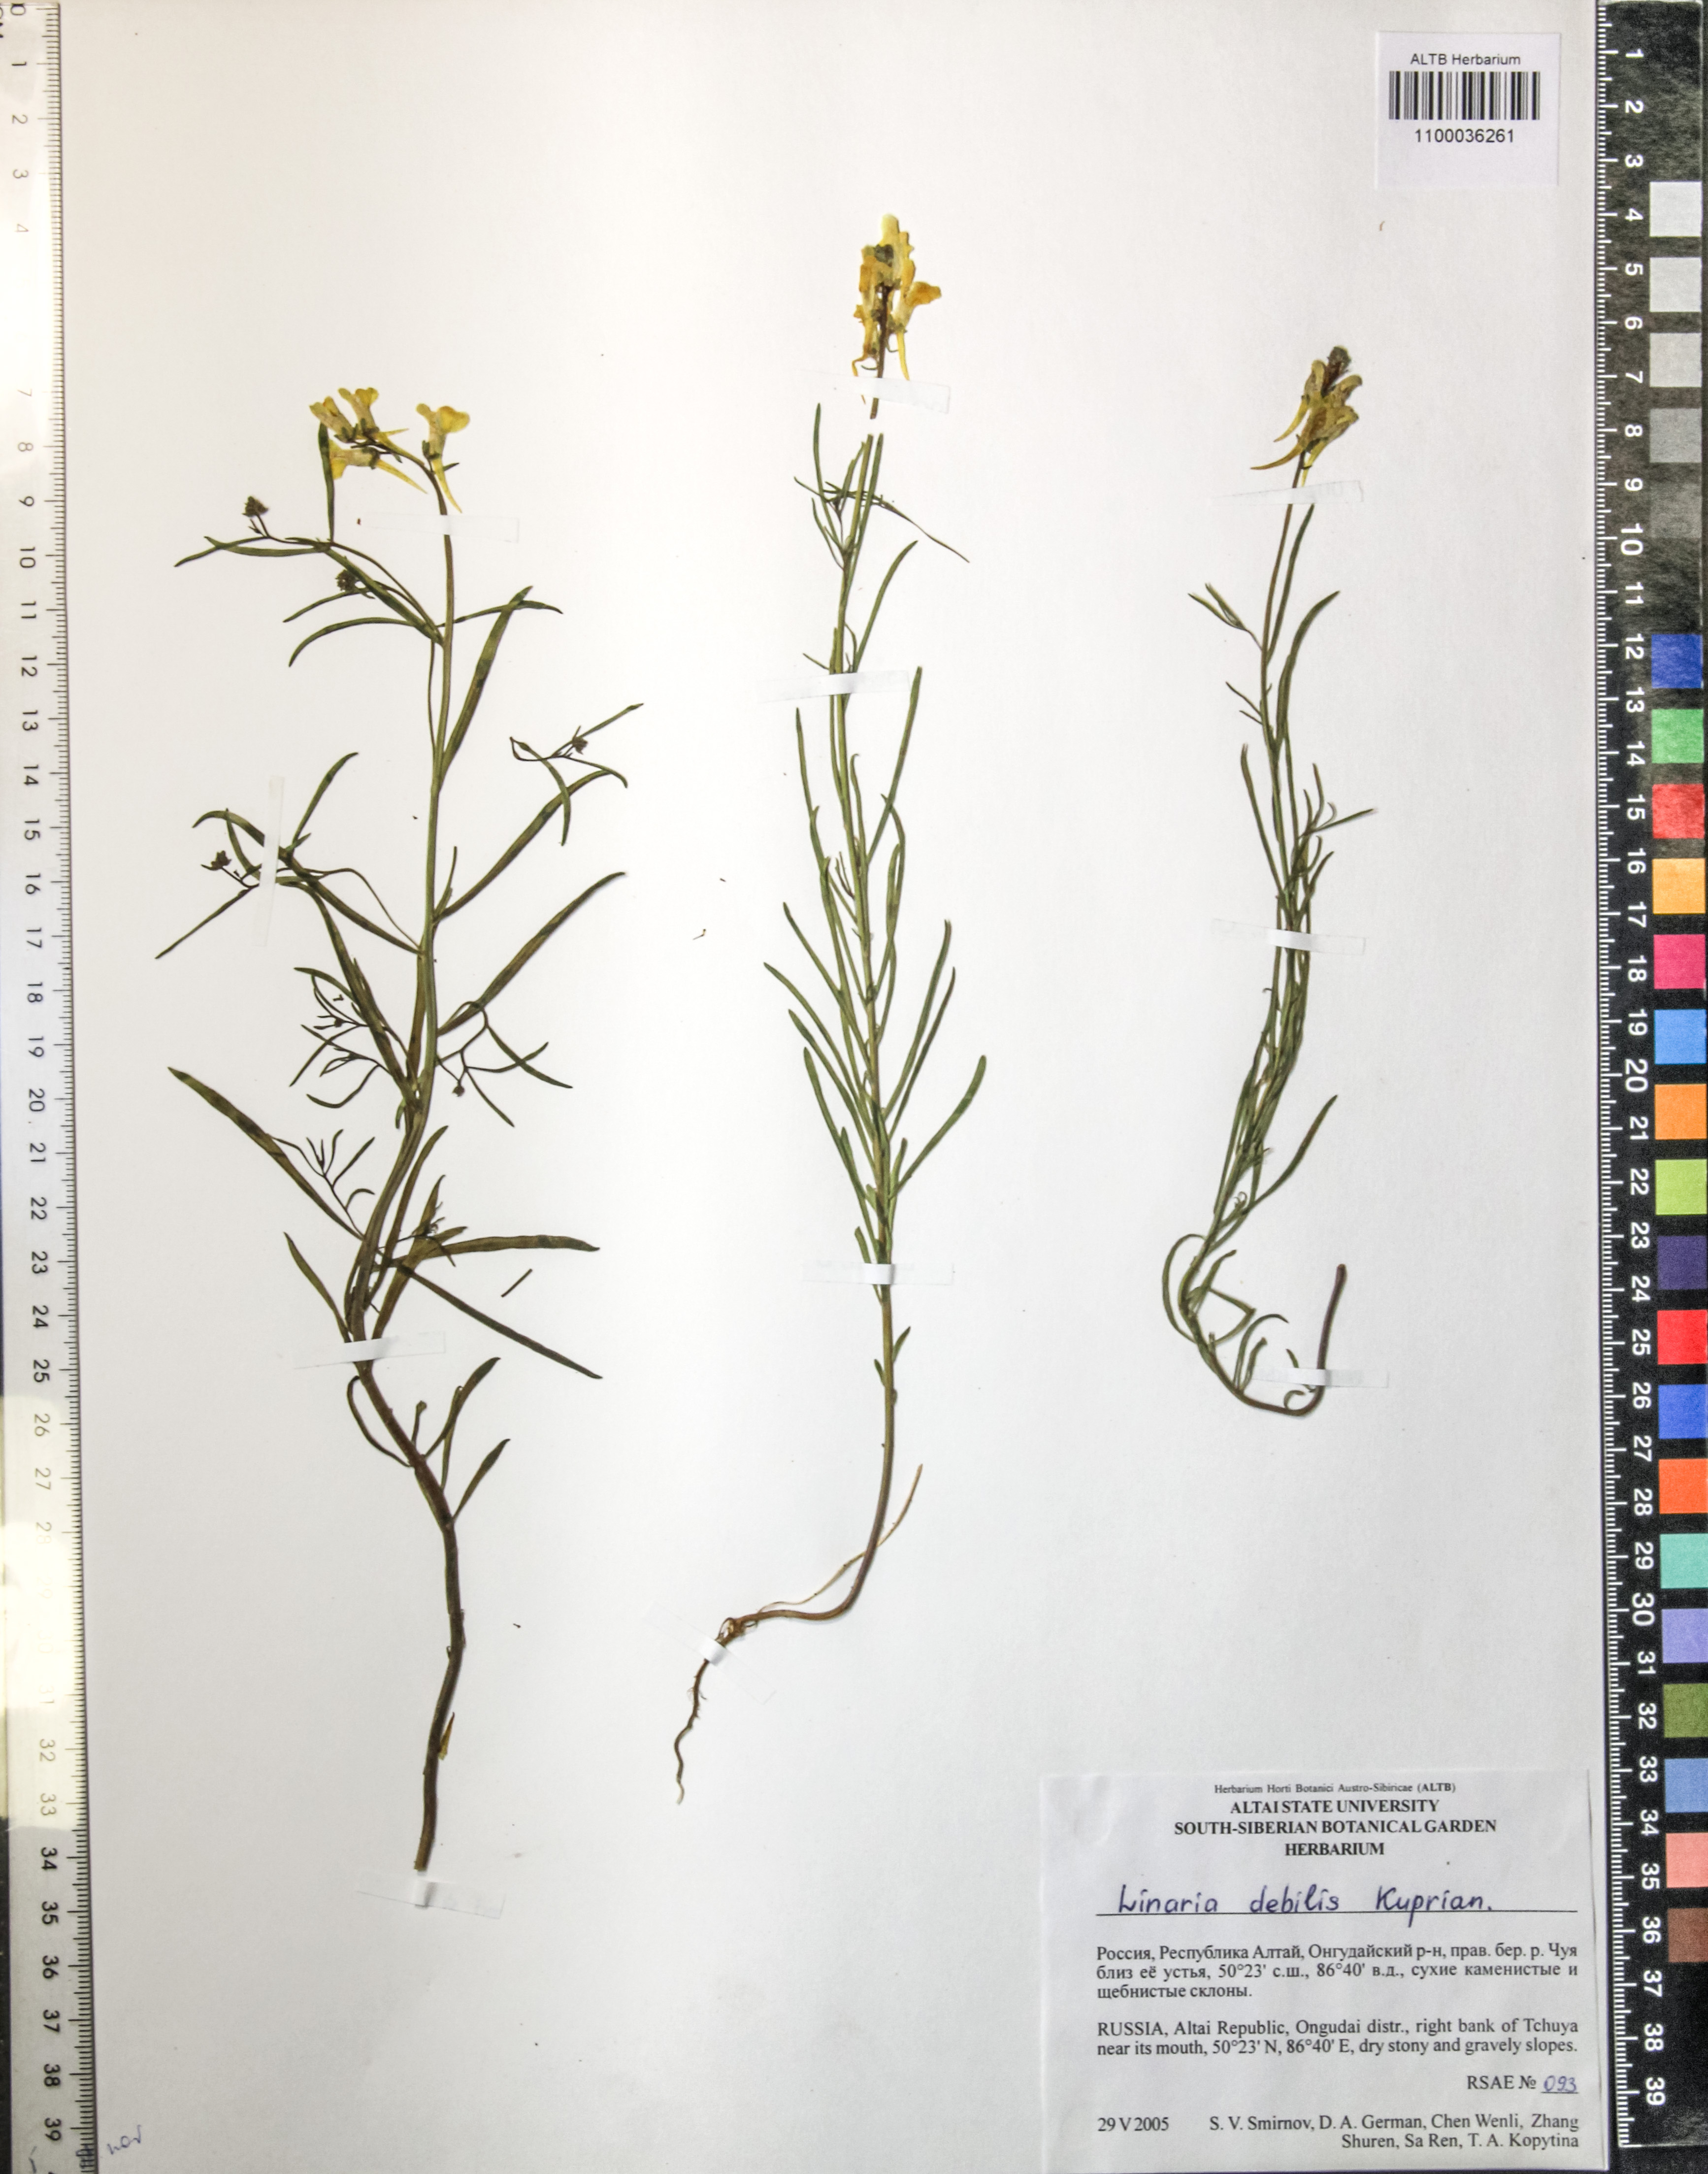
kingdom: Plantae
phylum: Tracheophyta
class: Magnoliopsida
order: Lamiales
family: Plantaginaceae
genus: Linaria
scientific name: Linaria altaica
